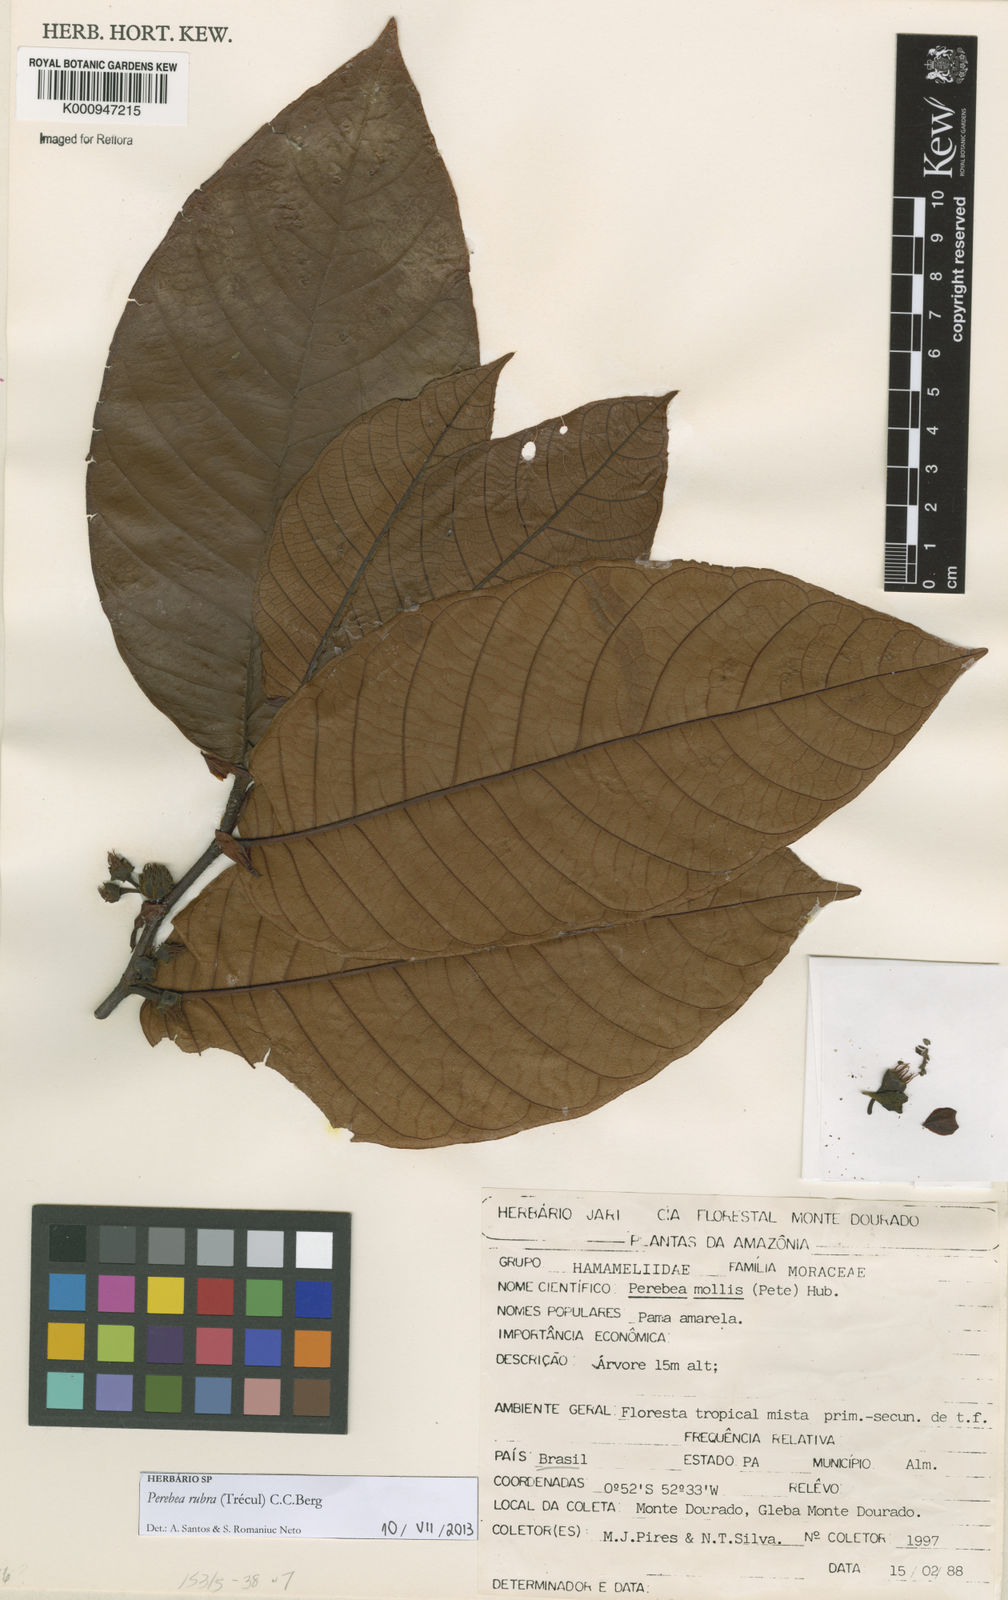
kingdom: Plantae
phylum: Tracheophyta
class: Magnoliopsida
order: Rosales
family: Moraceae
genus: Perebea
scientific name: Perebea
